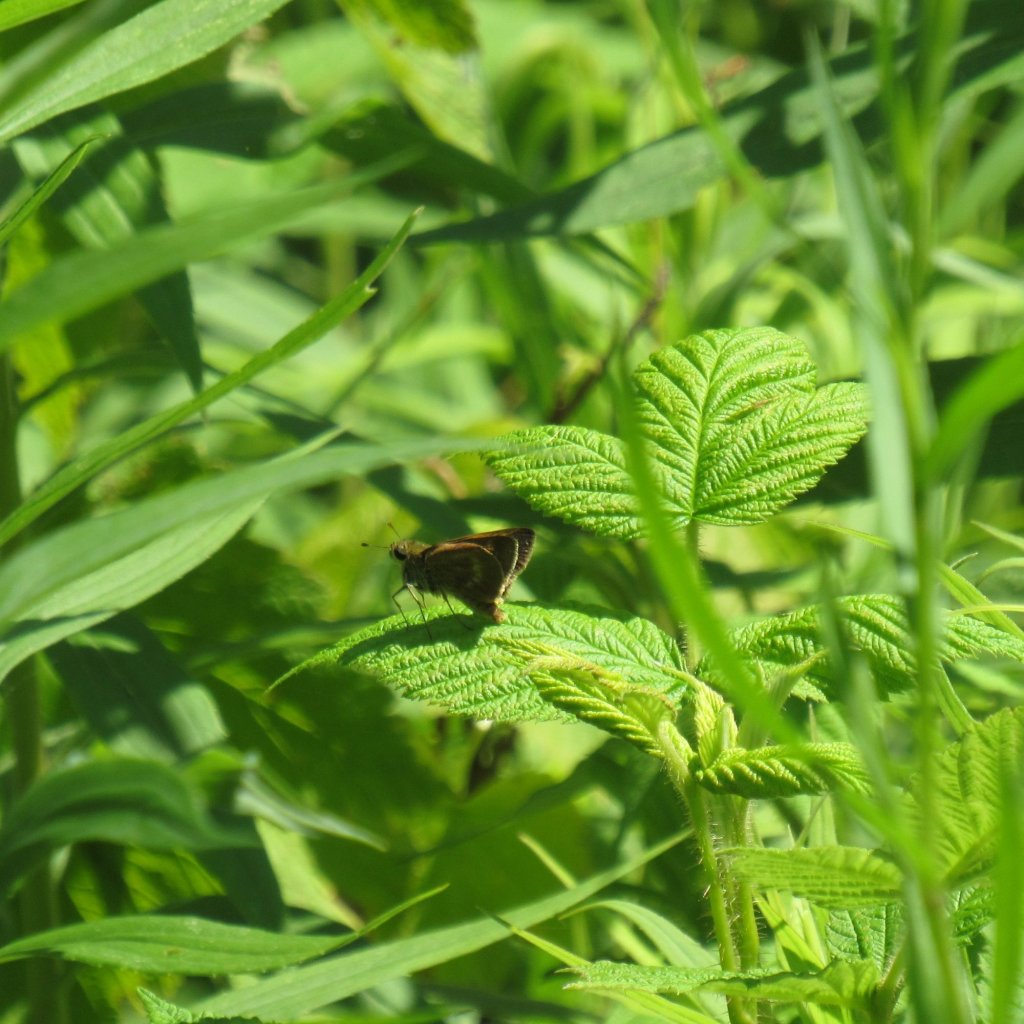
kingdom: Animalia
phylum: Arthropoda
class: Insecta
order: Lepidoptera
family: Hesperiidae
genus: Polites
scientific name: Polites egeremet
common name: Northern Broken-Dash
